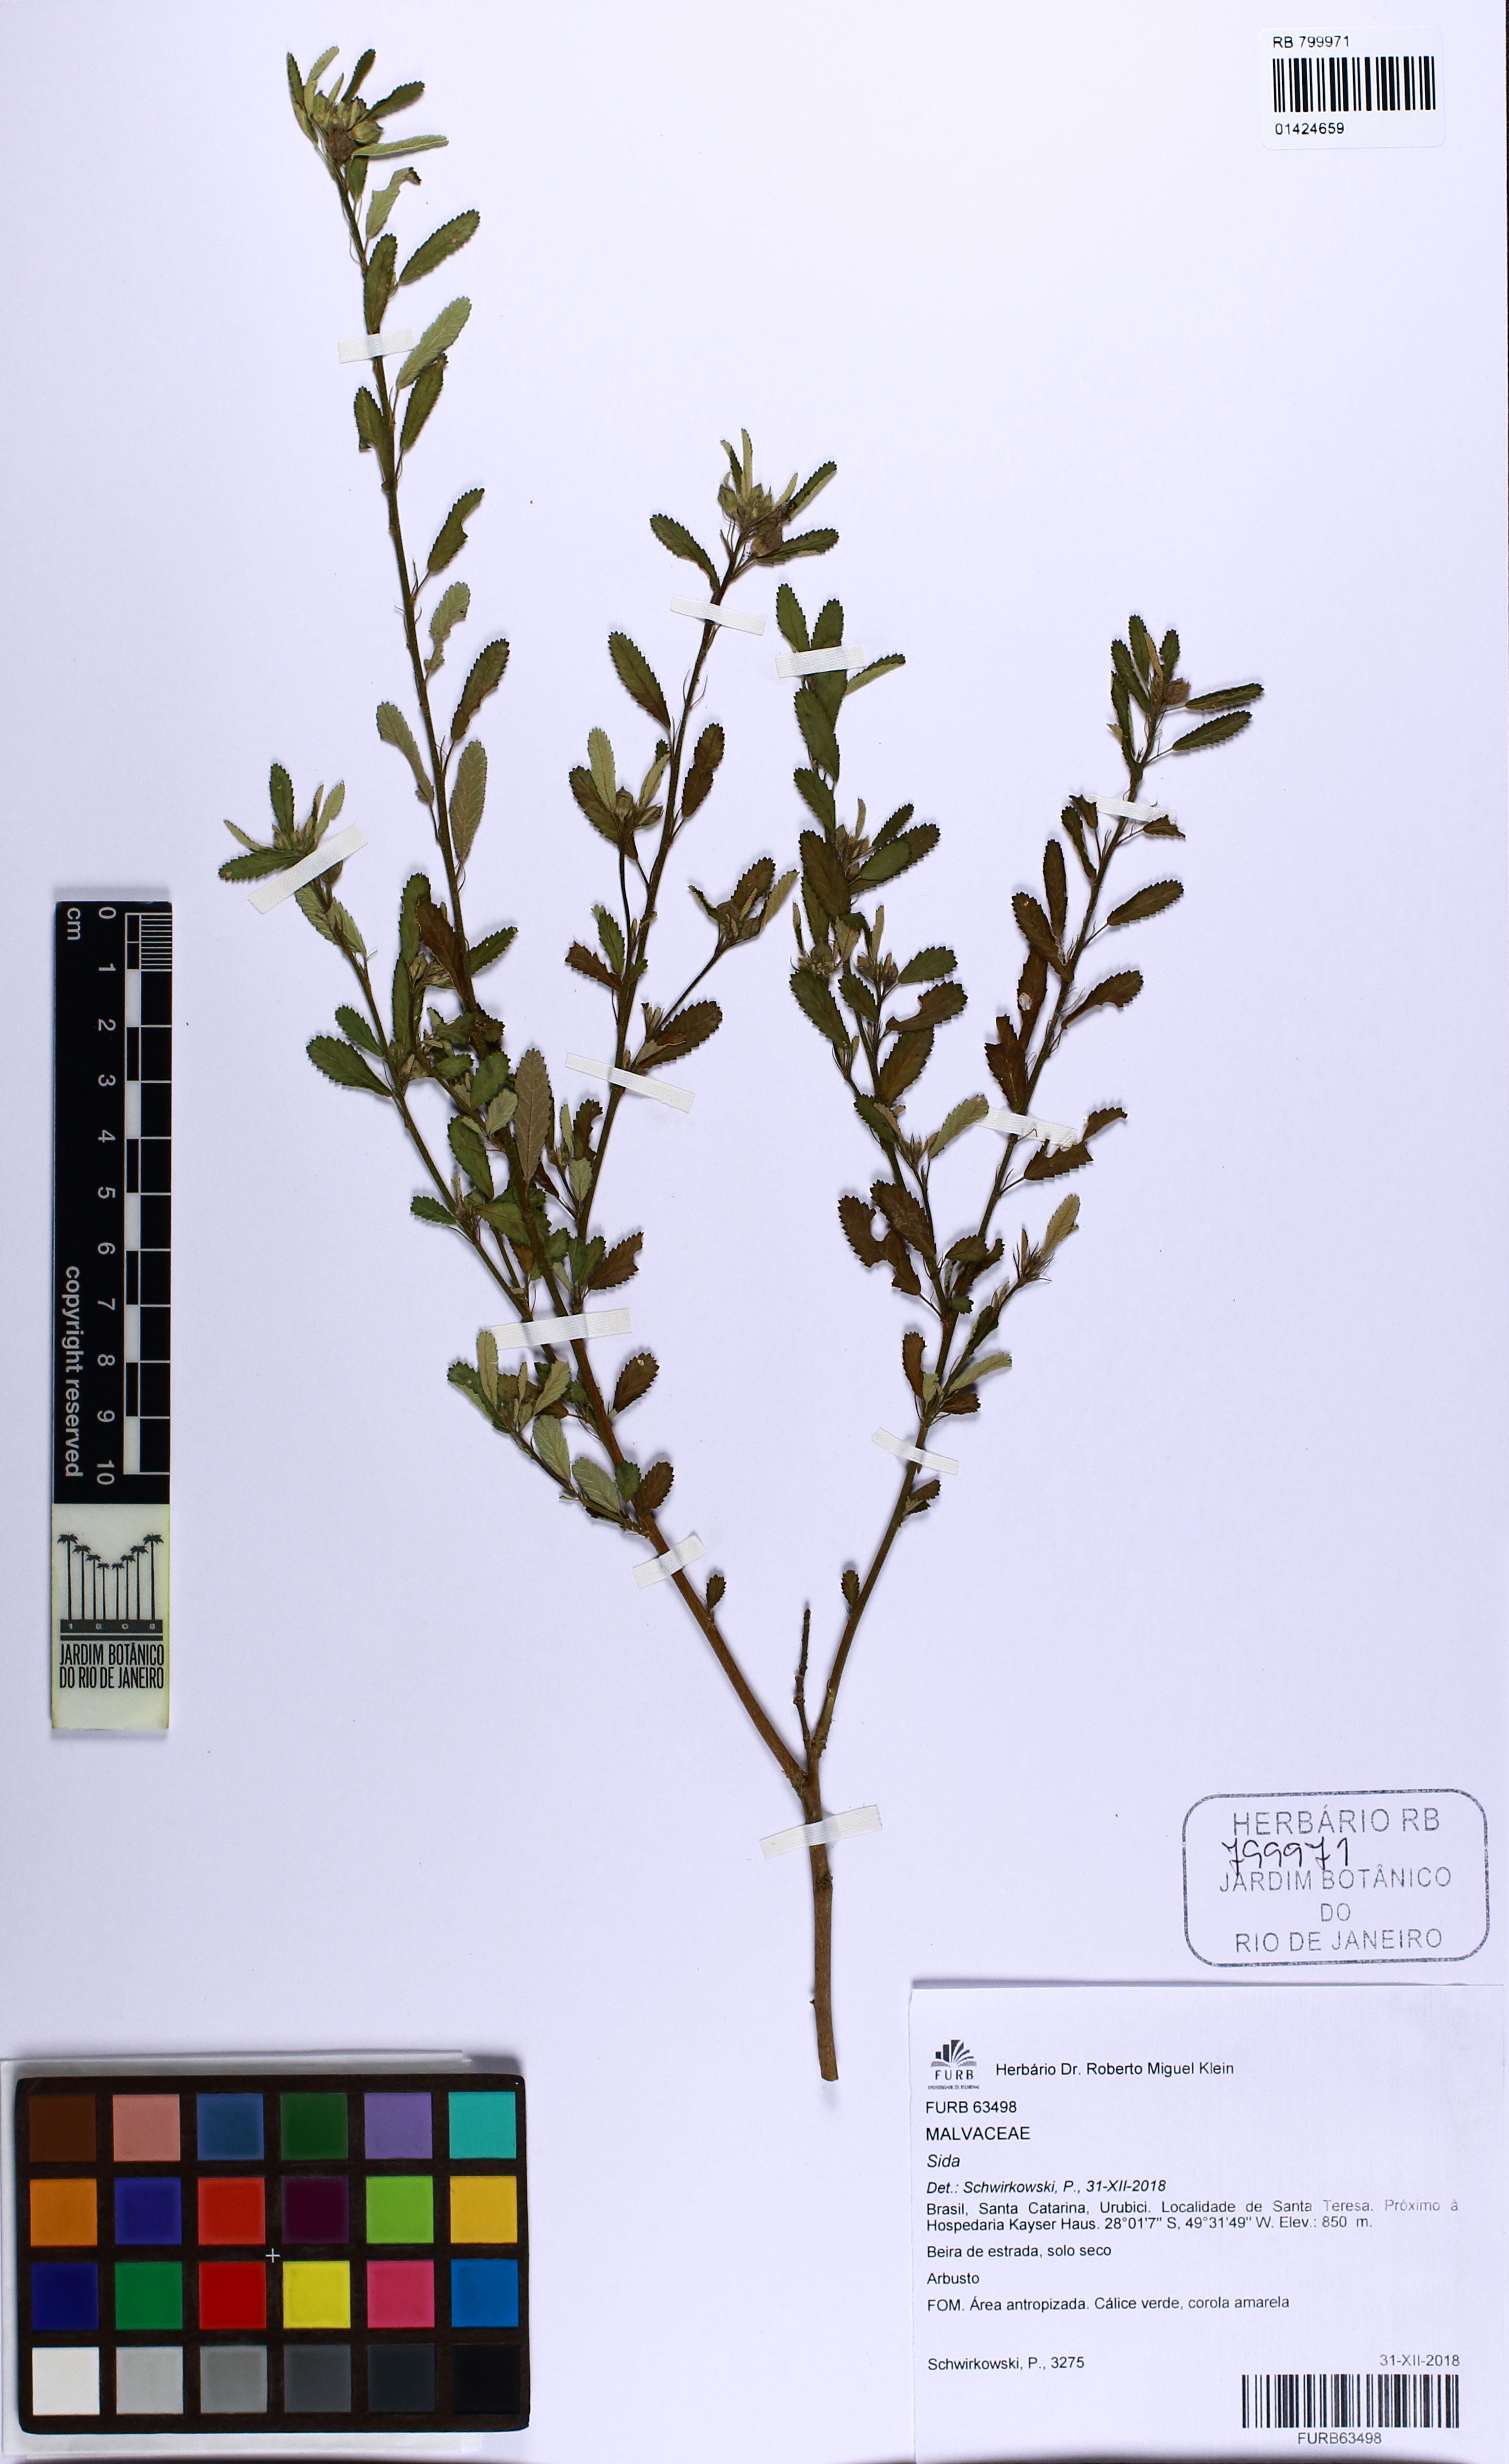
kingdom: Plantae
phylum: Tracheophyta
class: Magnoliopsida
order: Malvales
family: Malvaceae
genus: Sida
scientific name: Sida
